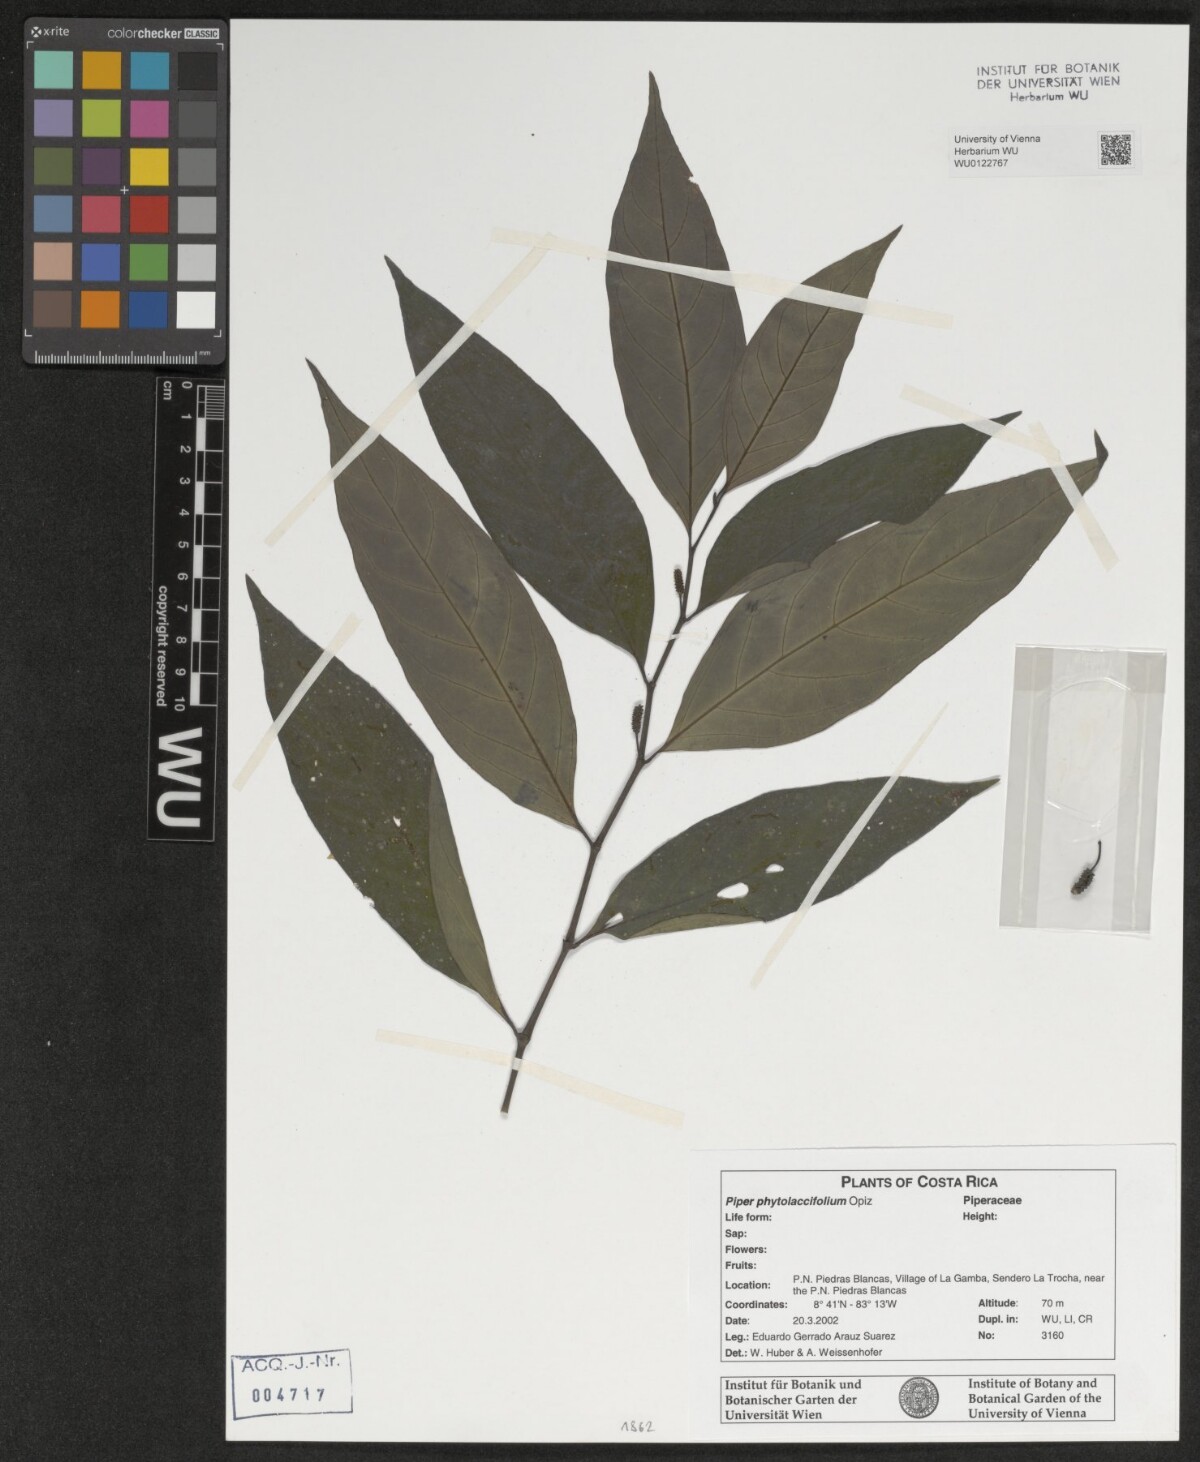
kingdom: Plantae
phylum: Tracheophyta
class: Magnoliopsida
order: Piperales
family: Piperaceae
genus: Piper
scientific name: Piper phytolaccifolium
